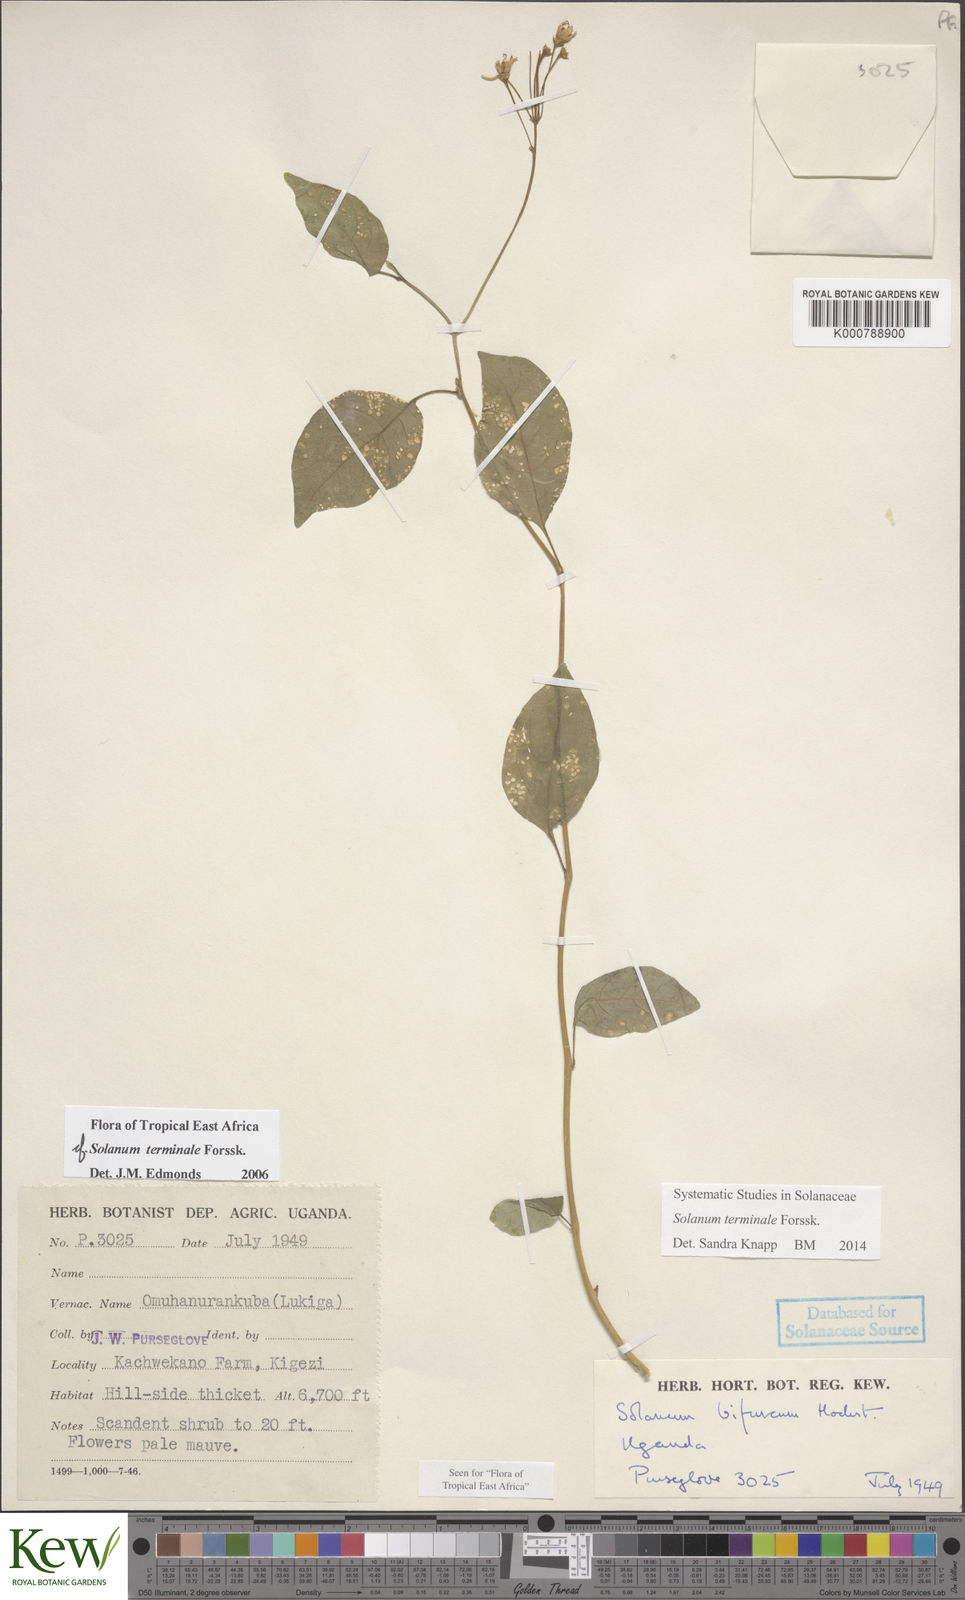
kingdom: Plantae
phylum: Tracheophyta
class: Magnoliopsida
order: Solanales
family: Solanaceae
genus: Solanum
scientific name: Solanum terminale
